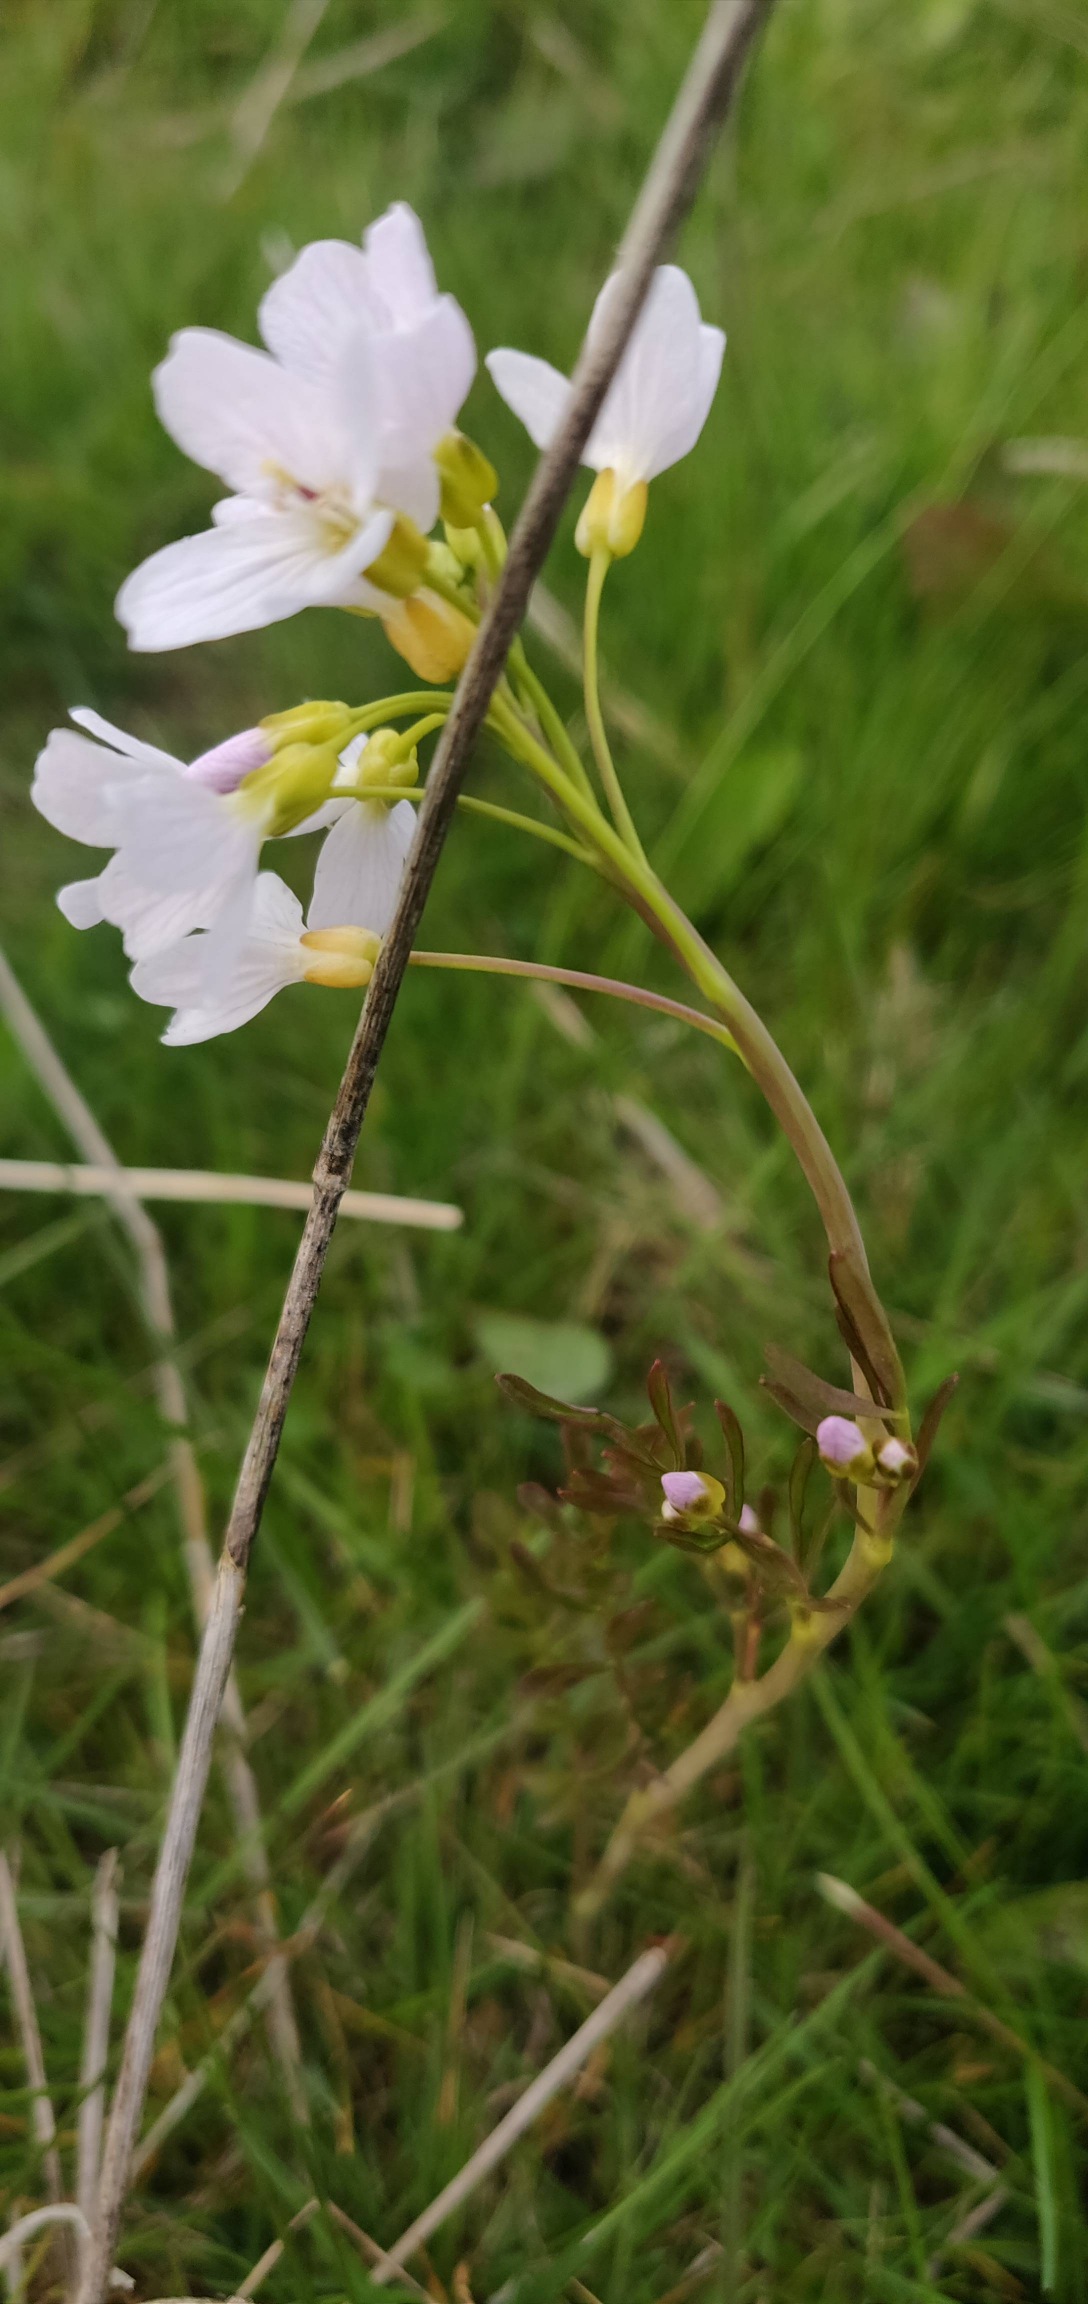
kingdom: Plantae
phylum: Tracheophyta
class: Magnoliopsida
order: Brassicales
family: Brassicaceae
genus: Cardamine
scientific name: Cardamine pratensis
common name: Engkarse
